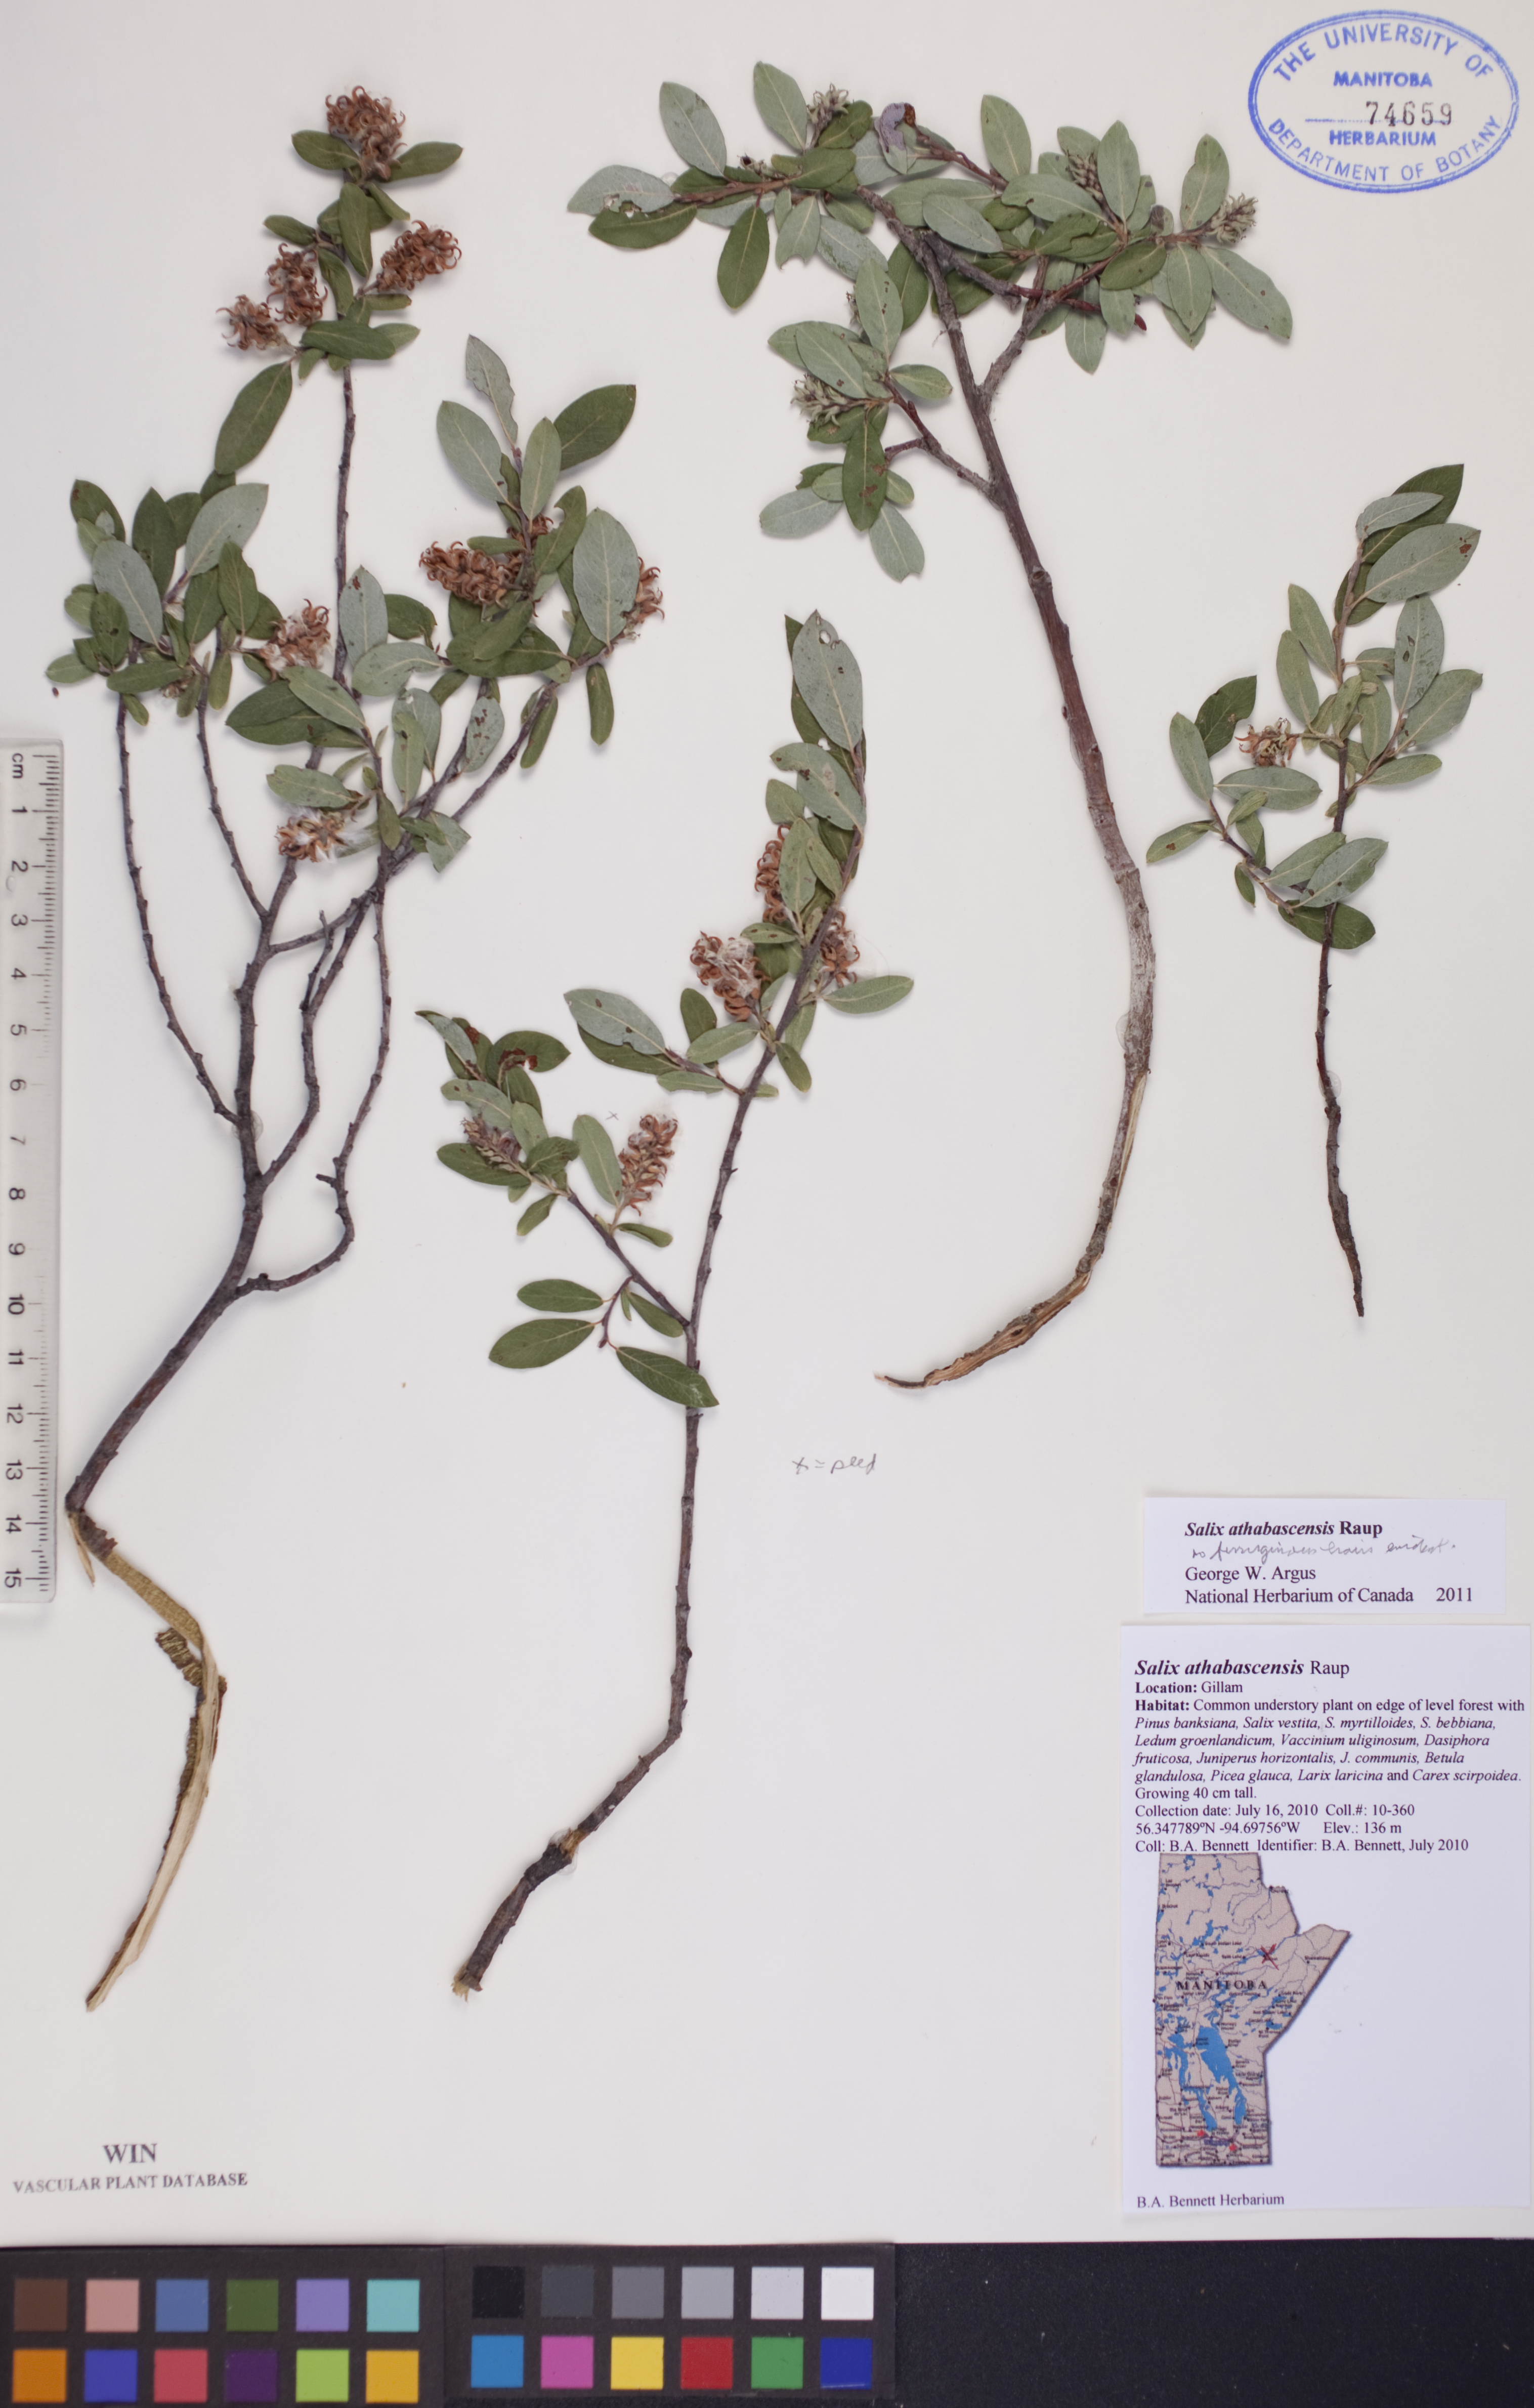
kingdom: Plantae
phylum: Tracheophyta
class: Magnoliopsida
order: Malpighiales
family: Salicaceae
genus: Salix
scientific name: Salix athabascensis
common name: Athabasca willow
